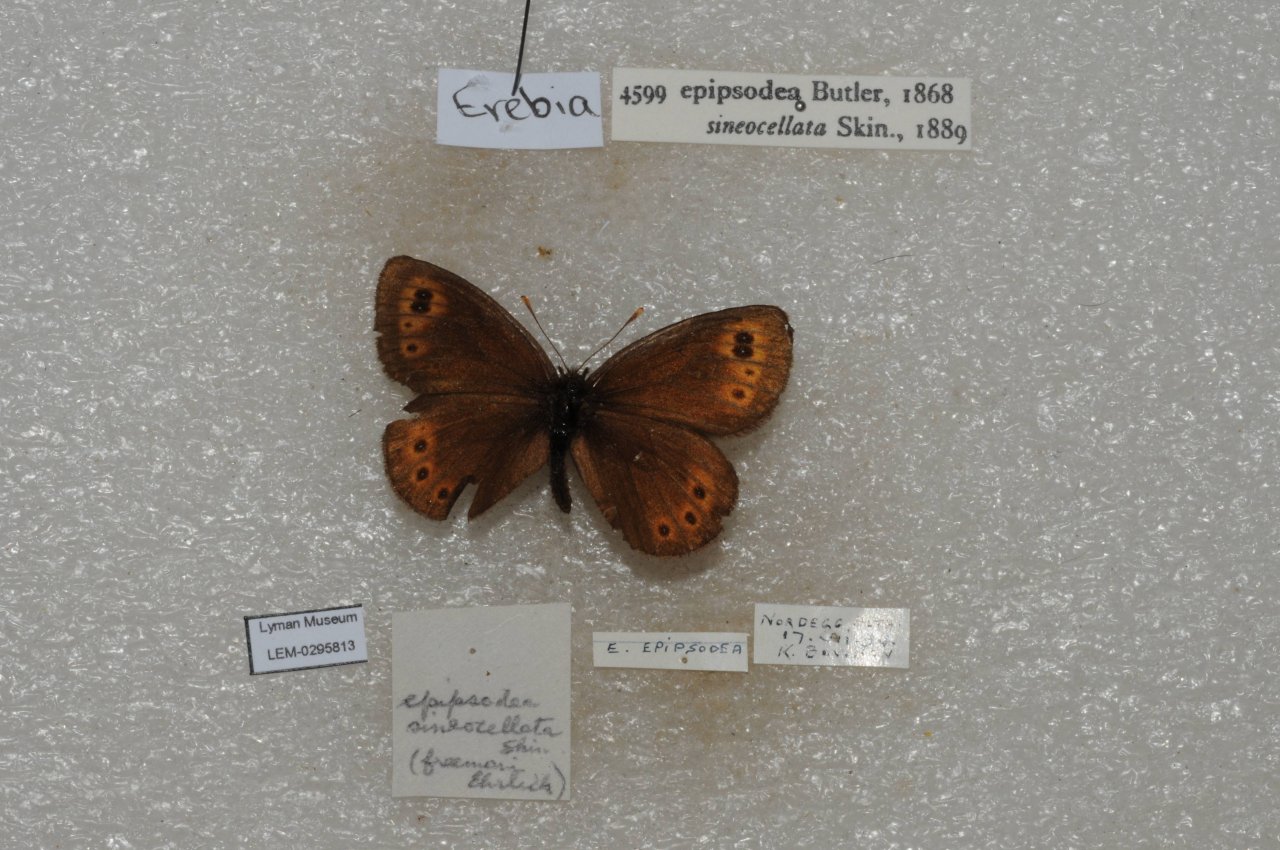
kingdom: Animalia
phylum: Arthropoda
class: Insecta
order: Lepidoptera
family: Nymphalidae
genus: Erebia
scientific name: Erebia epipsodea
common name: Common Alpine
